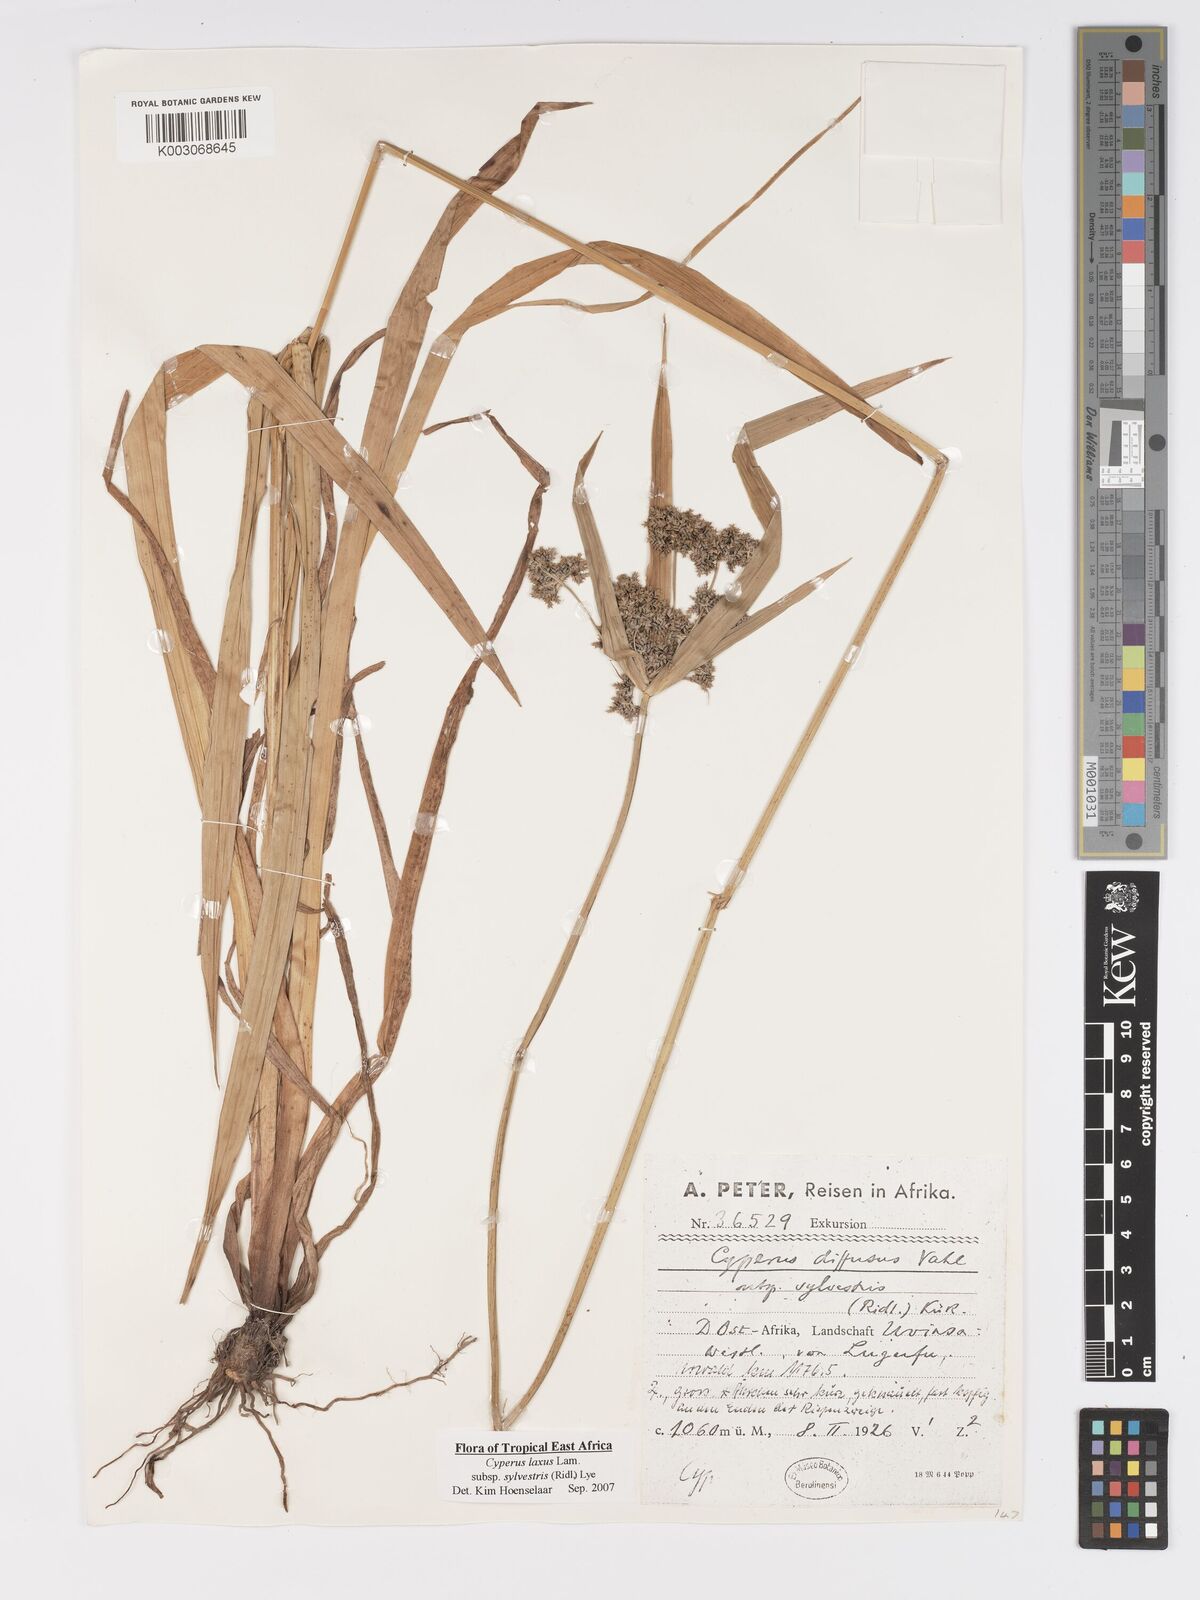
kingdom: Plantae
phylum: Tracheophyta
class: Liliopsida
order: Poales
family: Cyperaceae
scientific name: Cyperaceae
